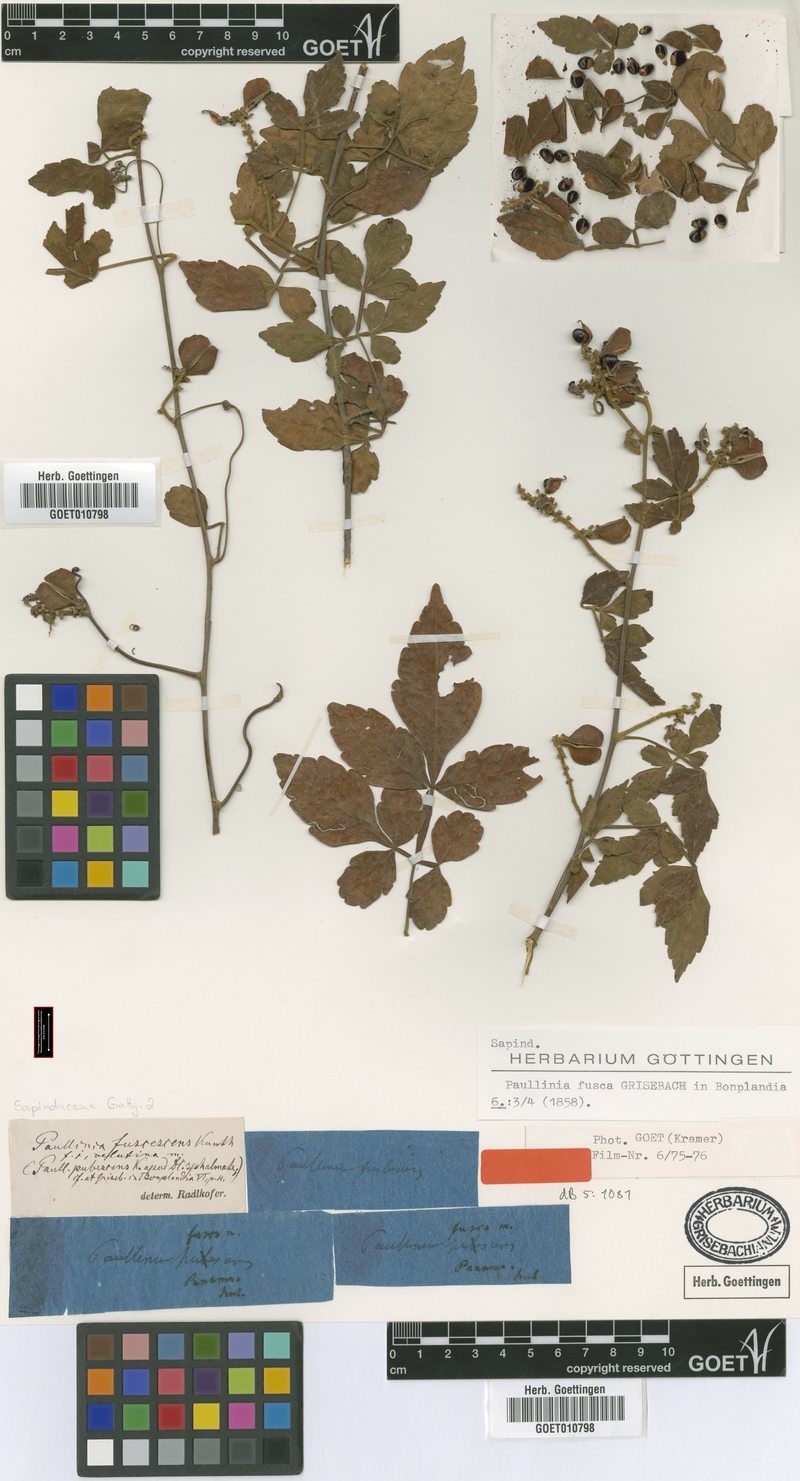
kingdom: Plantae
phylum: Tracheophyta
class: Magnoliopsida
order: Sapindales
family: Sapindaceae
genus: Paullinia
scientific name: Paullinia fuscescens
